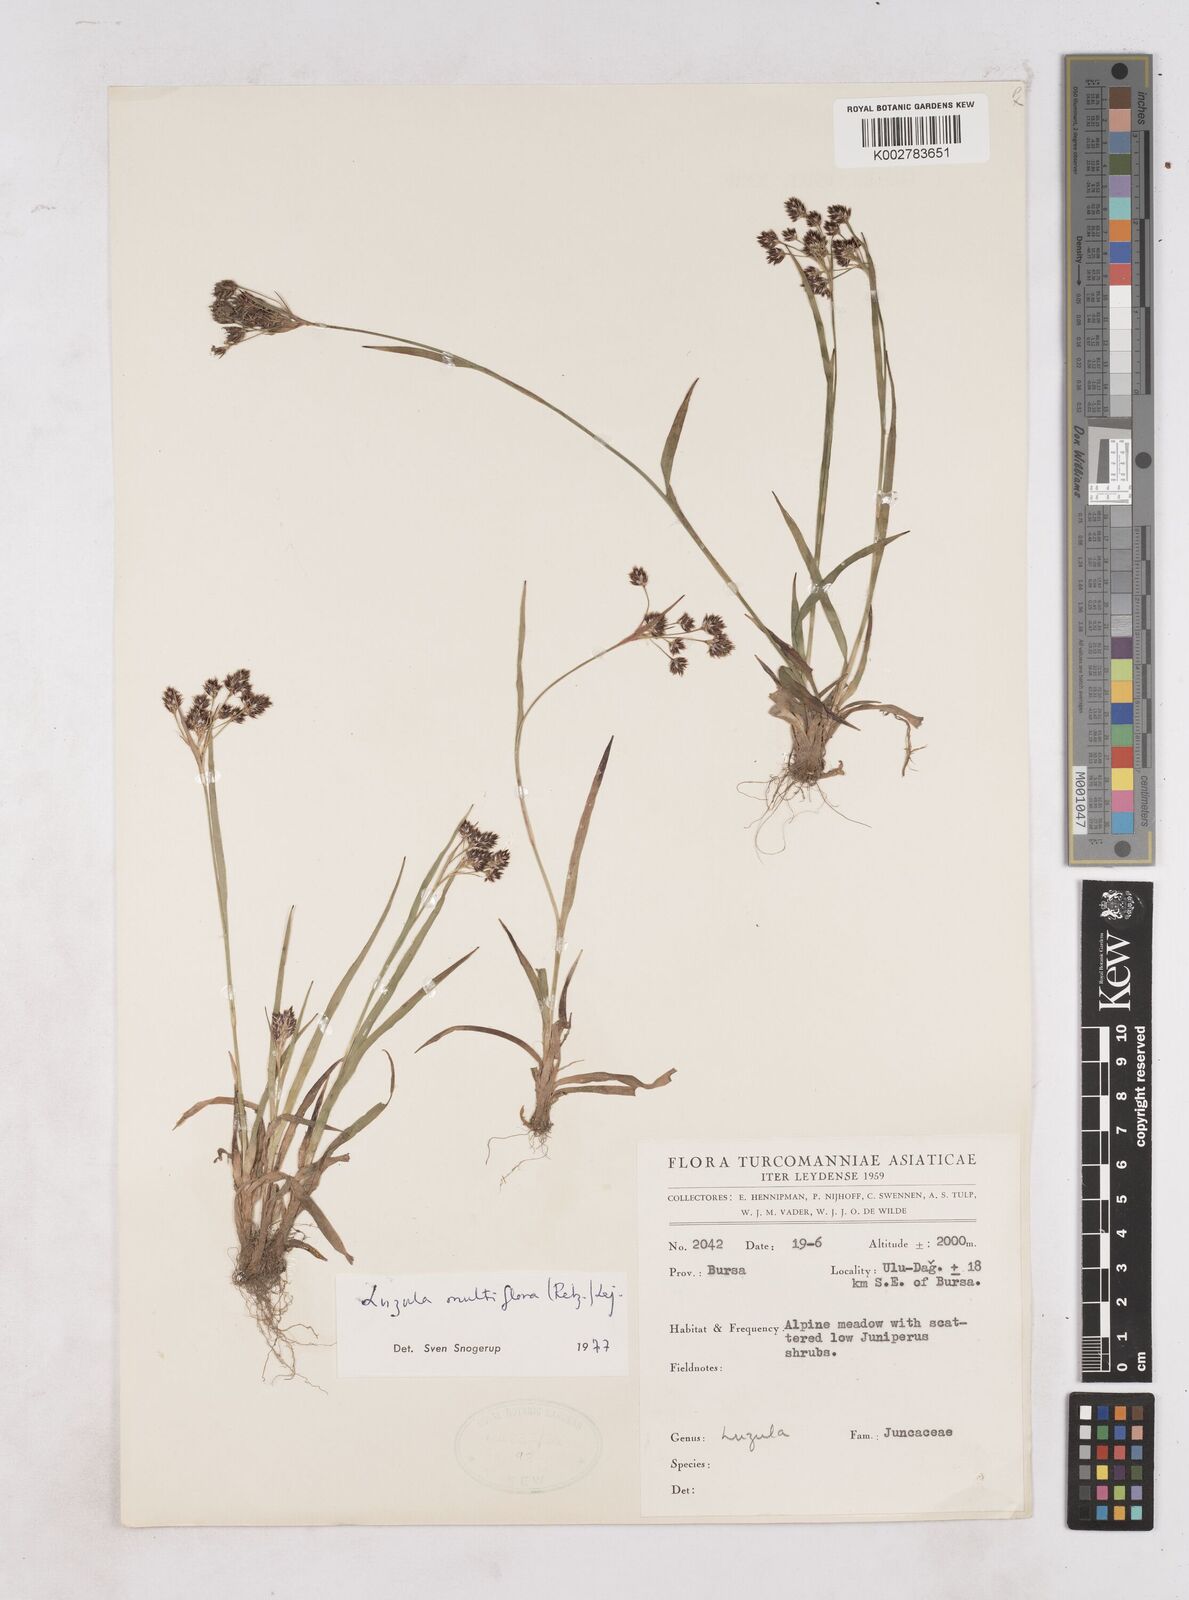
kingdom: Plantae
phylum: Tracheophyta
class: Liliopsida
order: Poales
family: Juncaceae
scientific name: Juncaceae
